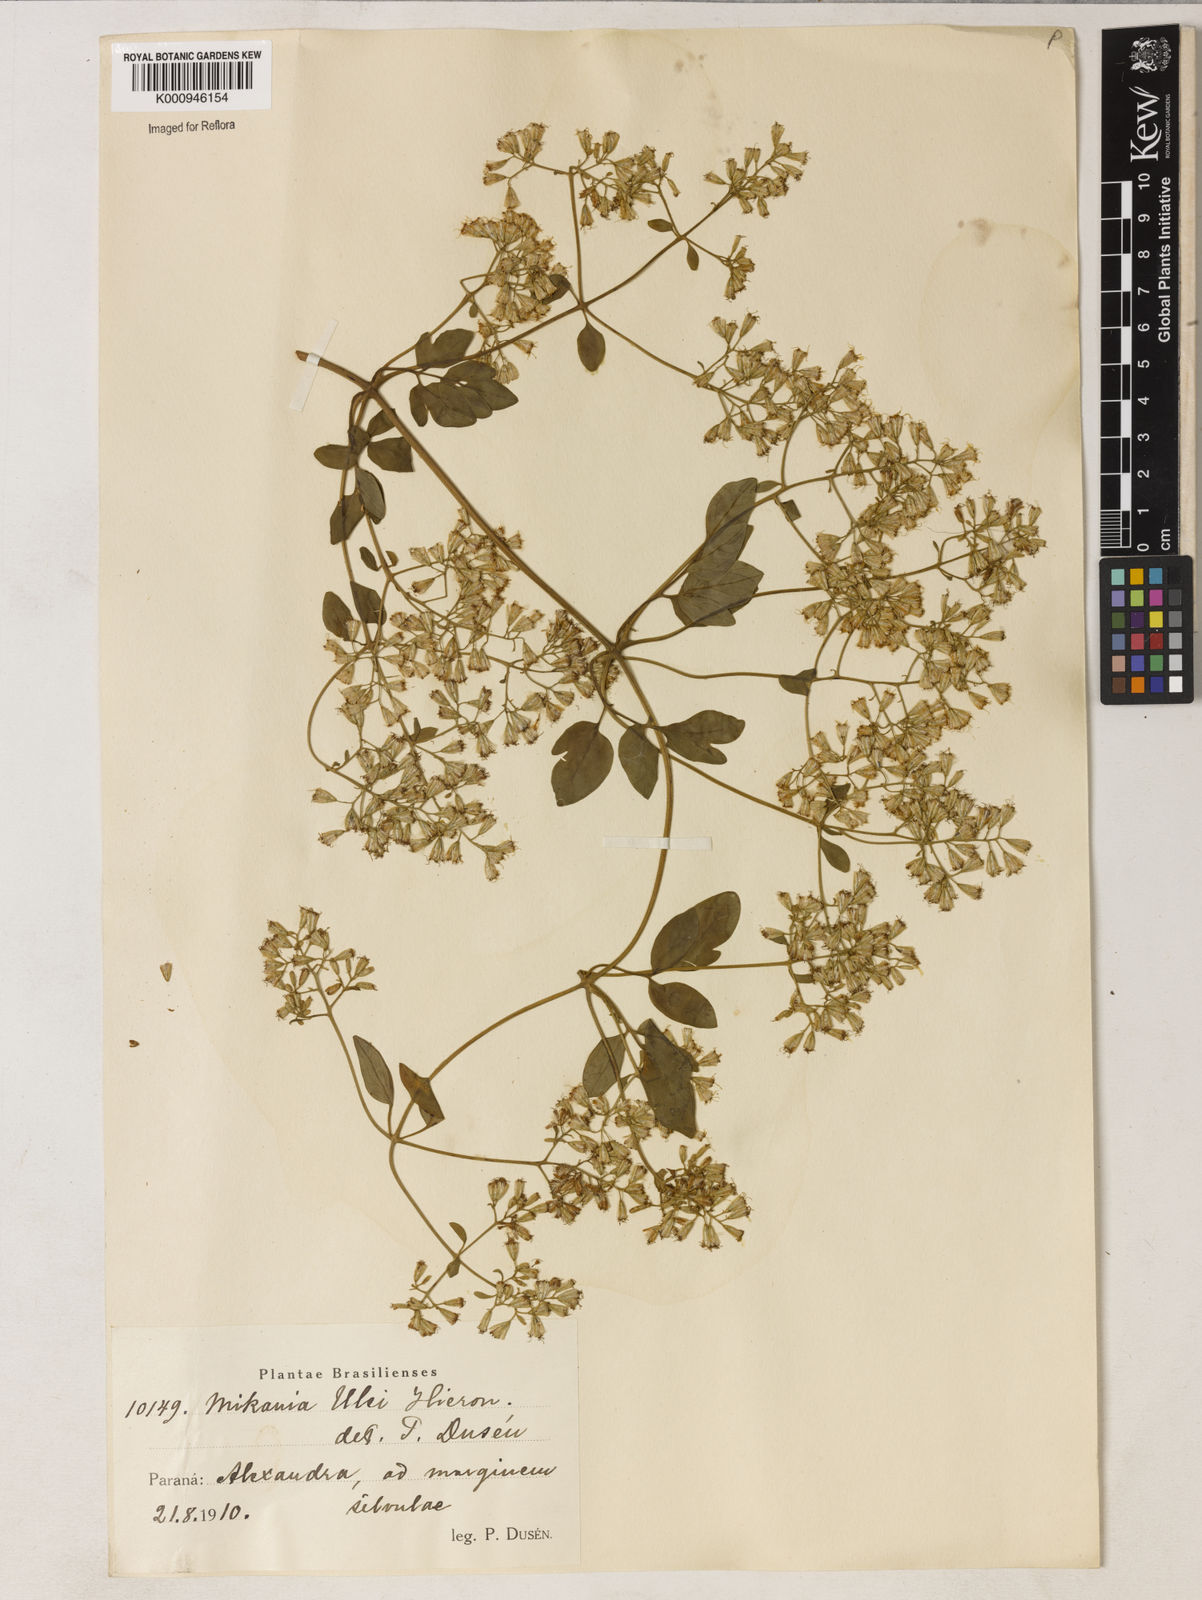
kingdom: Plantae
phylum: Tracheophyta
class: Magnoliopsida
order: Asterales
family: Asteraceae
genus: Mikania
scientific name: Mikania ulei
